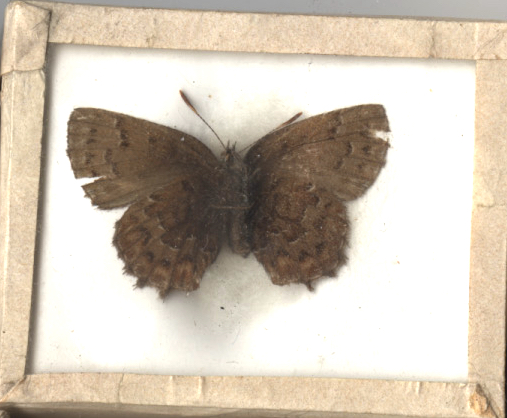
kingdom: Animalia
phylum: Arthropoda
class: Insecta
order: Lepidoptera
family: Lycaenidae
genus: Incisalia
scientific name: Incisalia niphon
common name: Eastern Pine Elfin
